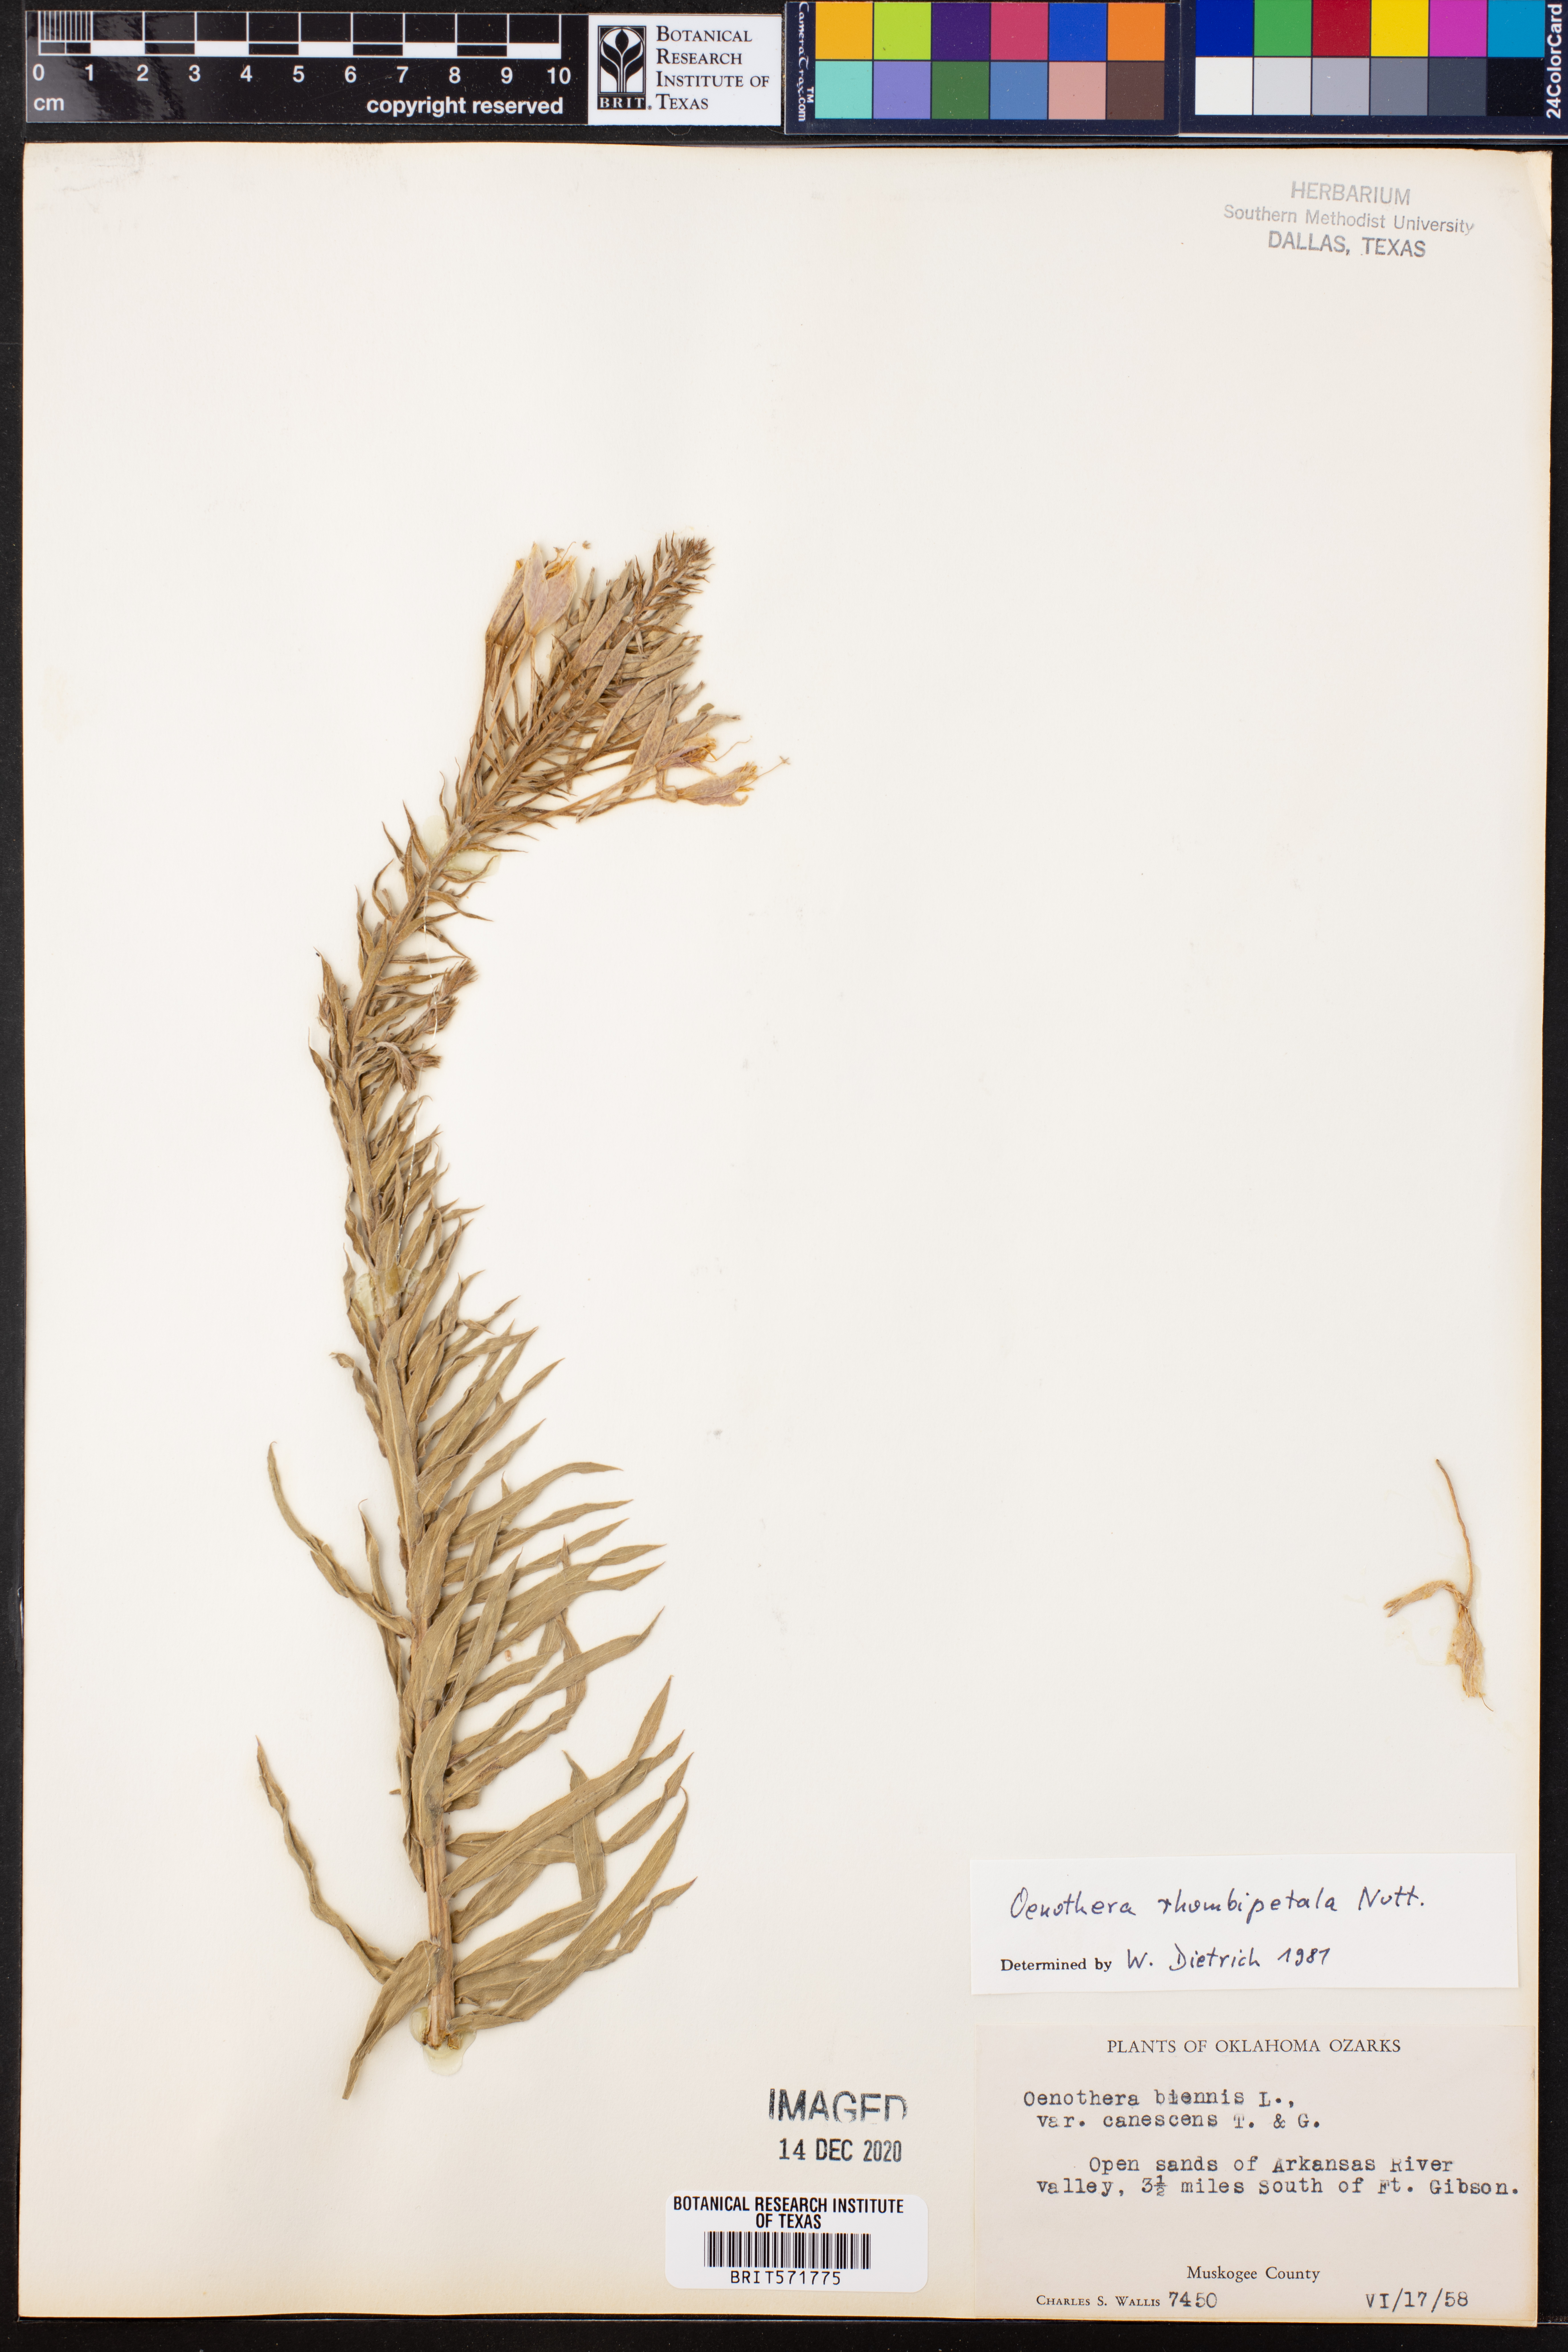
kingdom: Plantae
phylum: Tracheophyta
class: Magnoliopsida
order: Myrtales
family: Onagraceae
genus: Oenothera
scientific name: Oenothera rhombipetala
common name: Four-points evening-primrose
